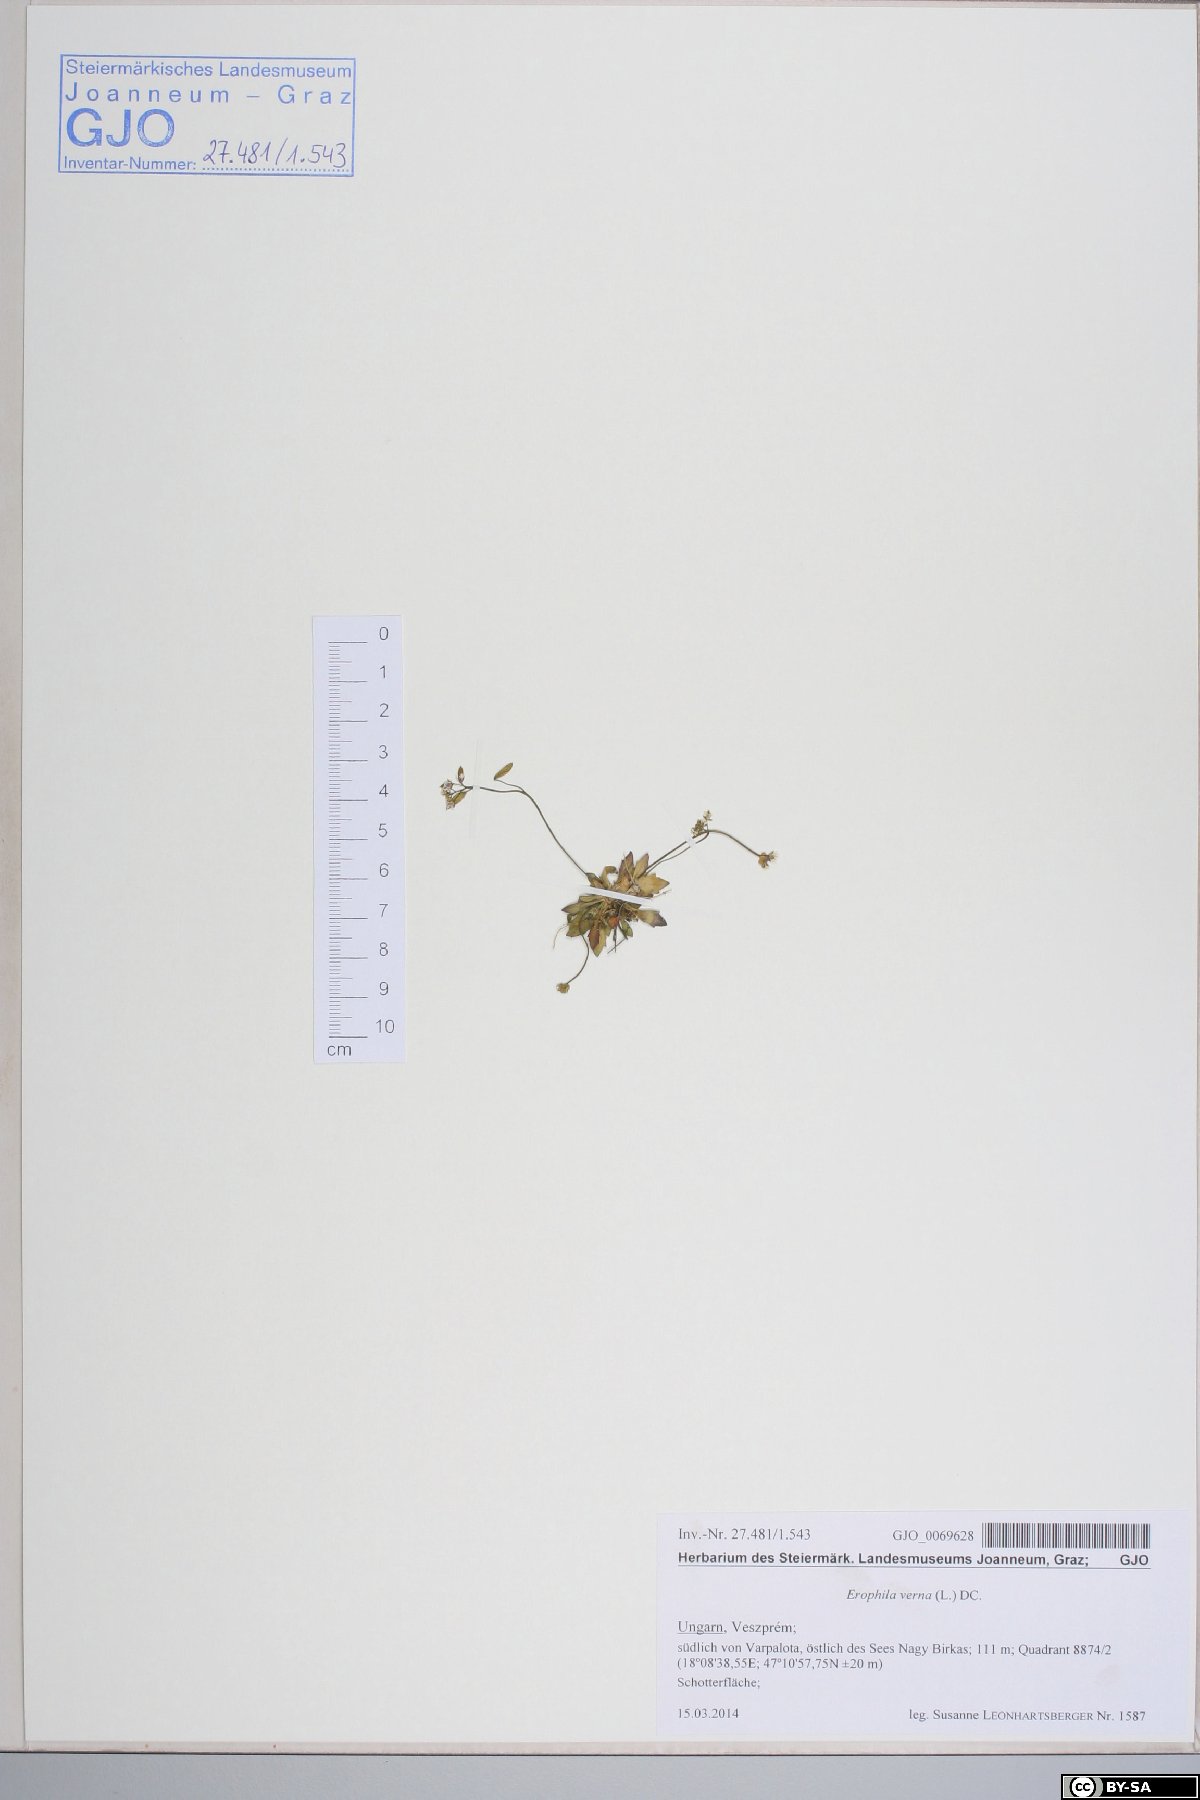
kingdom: Plantae
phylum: Tracheophyta
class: Magnoliopsida
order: Brassicales
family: Brassicaceae
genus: Draba
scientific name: Draba verna
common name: Spring draba
